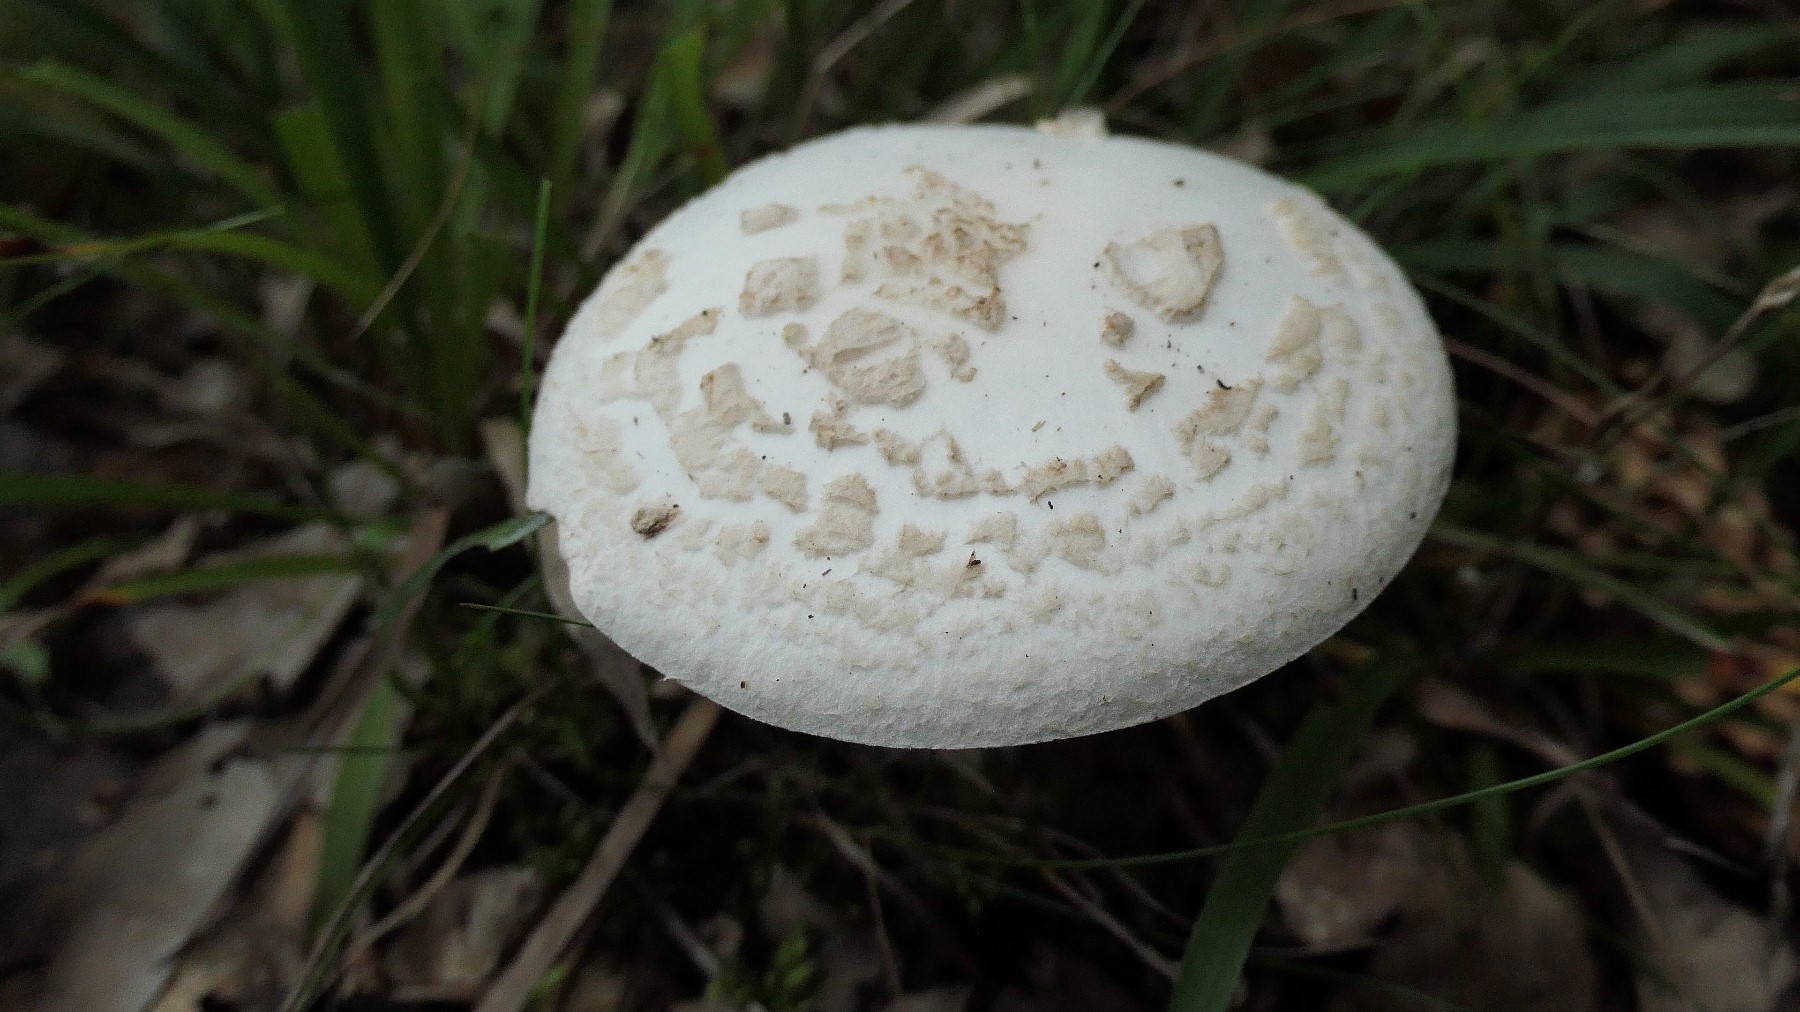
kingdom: Fungi
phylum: Basidiomycota
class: Agaricomycetes
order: Agaricales
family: Amanitaceae
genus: Amanita
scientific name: Amanita citrina
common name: False death-cap
